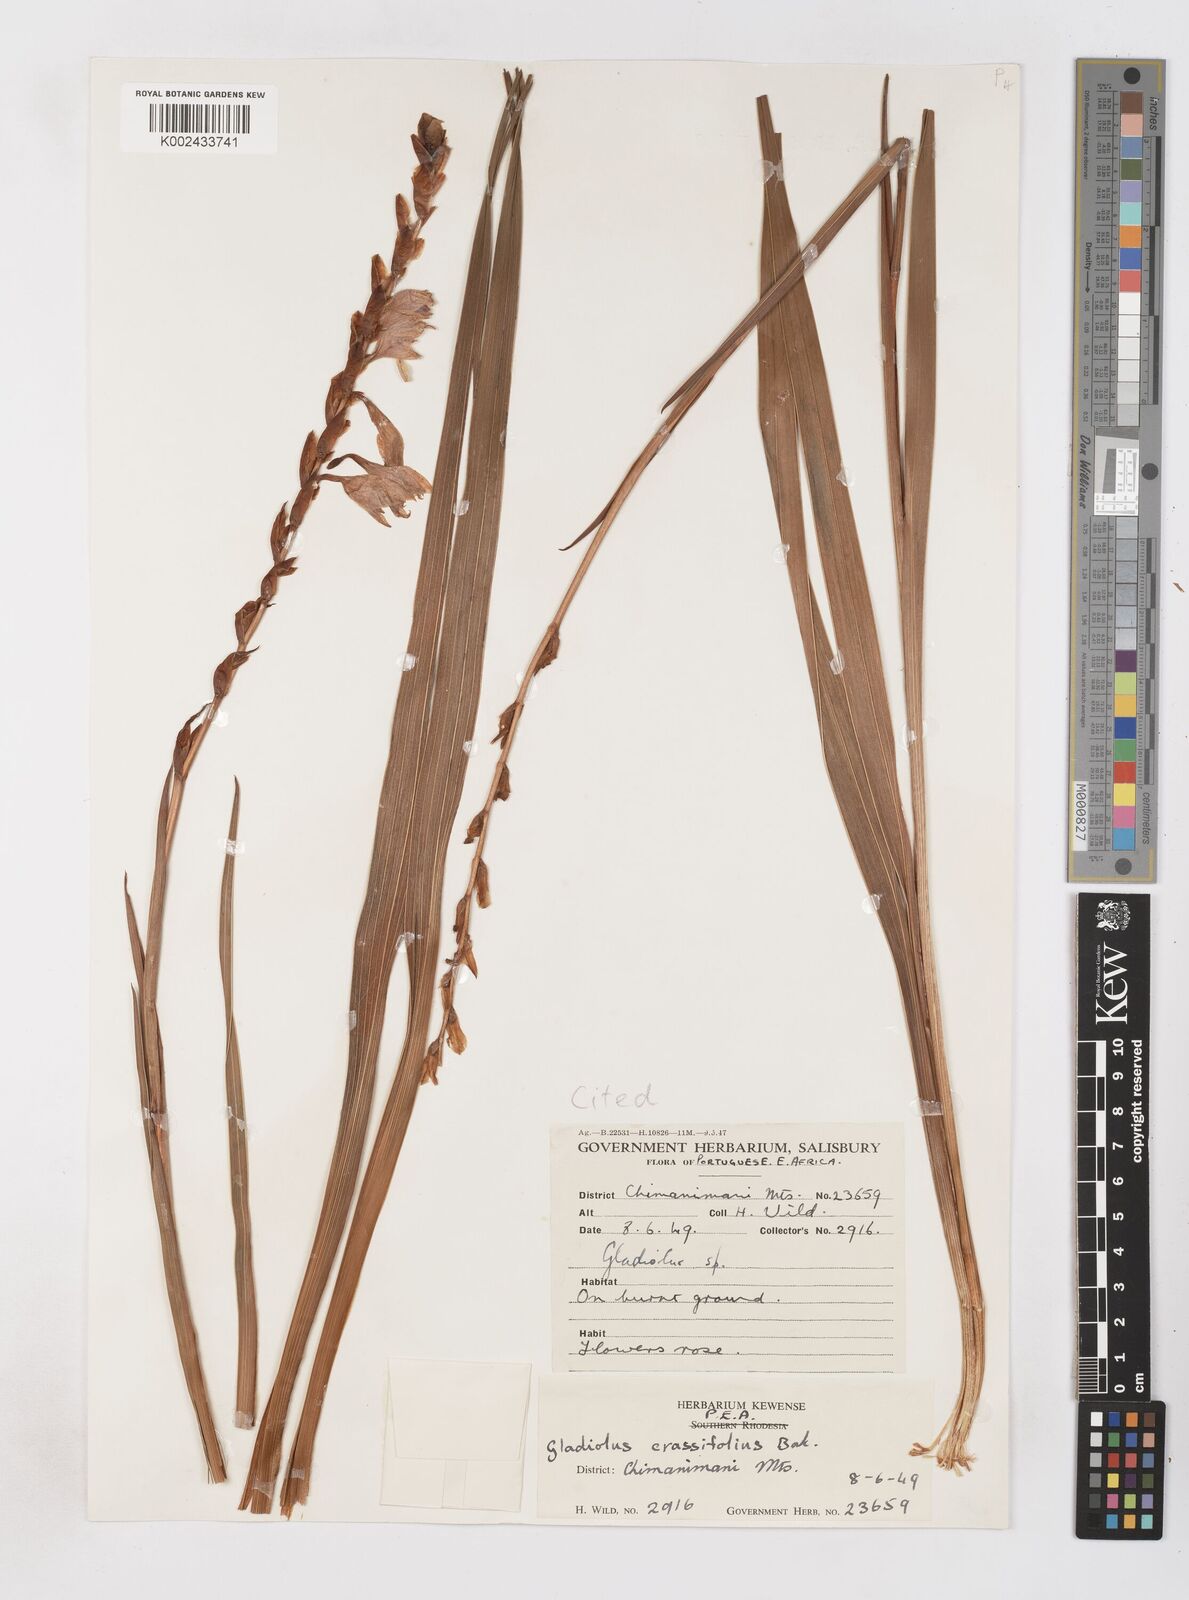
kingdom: Plantae
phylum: Tracheophyta
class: Liliopsida
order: Asparagales
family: Iridaceae
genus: Gladiolus
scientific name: Gladiolus crassifolius
